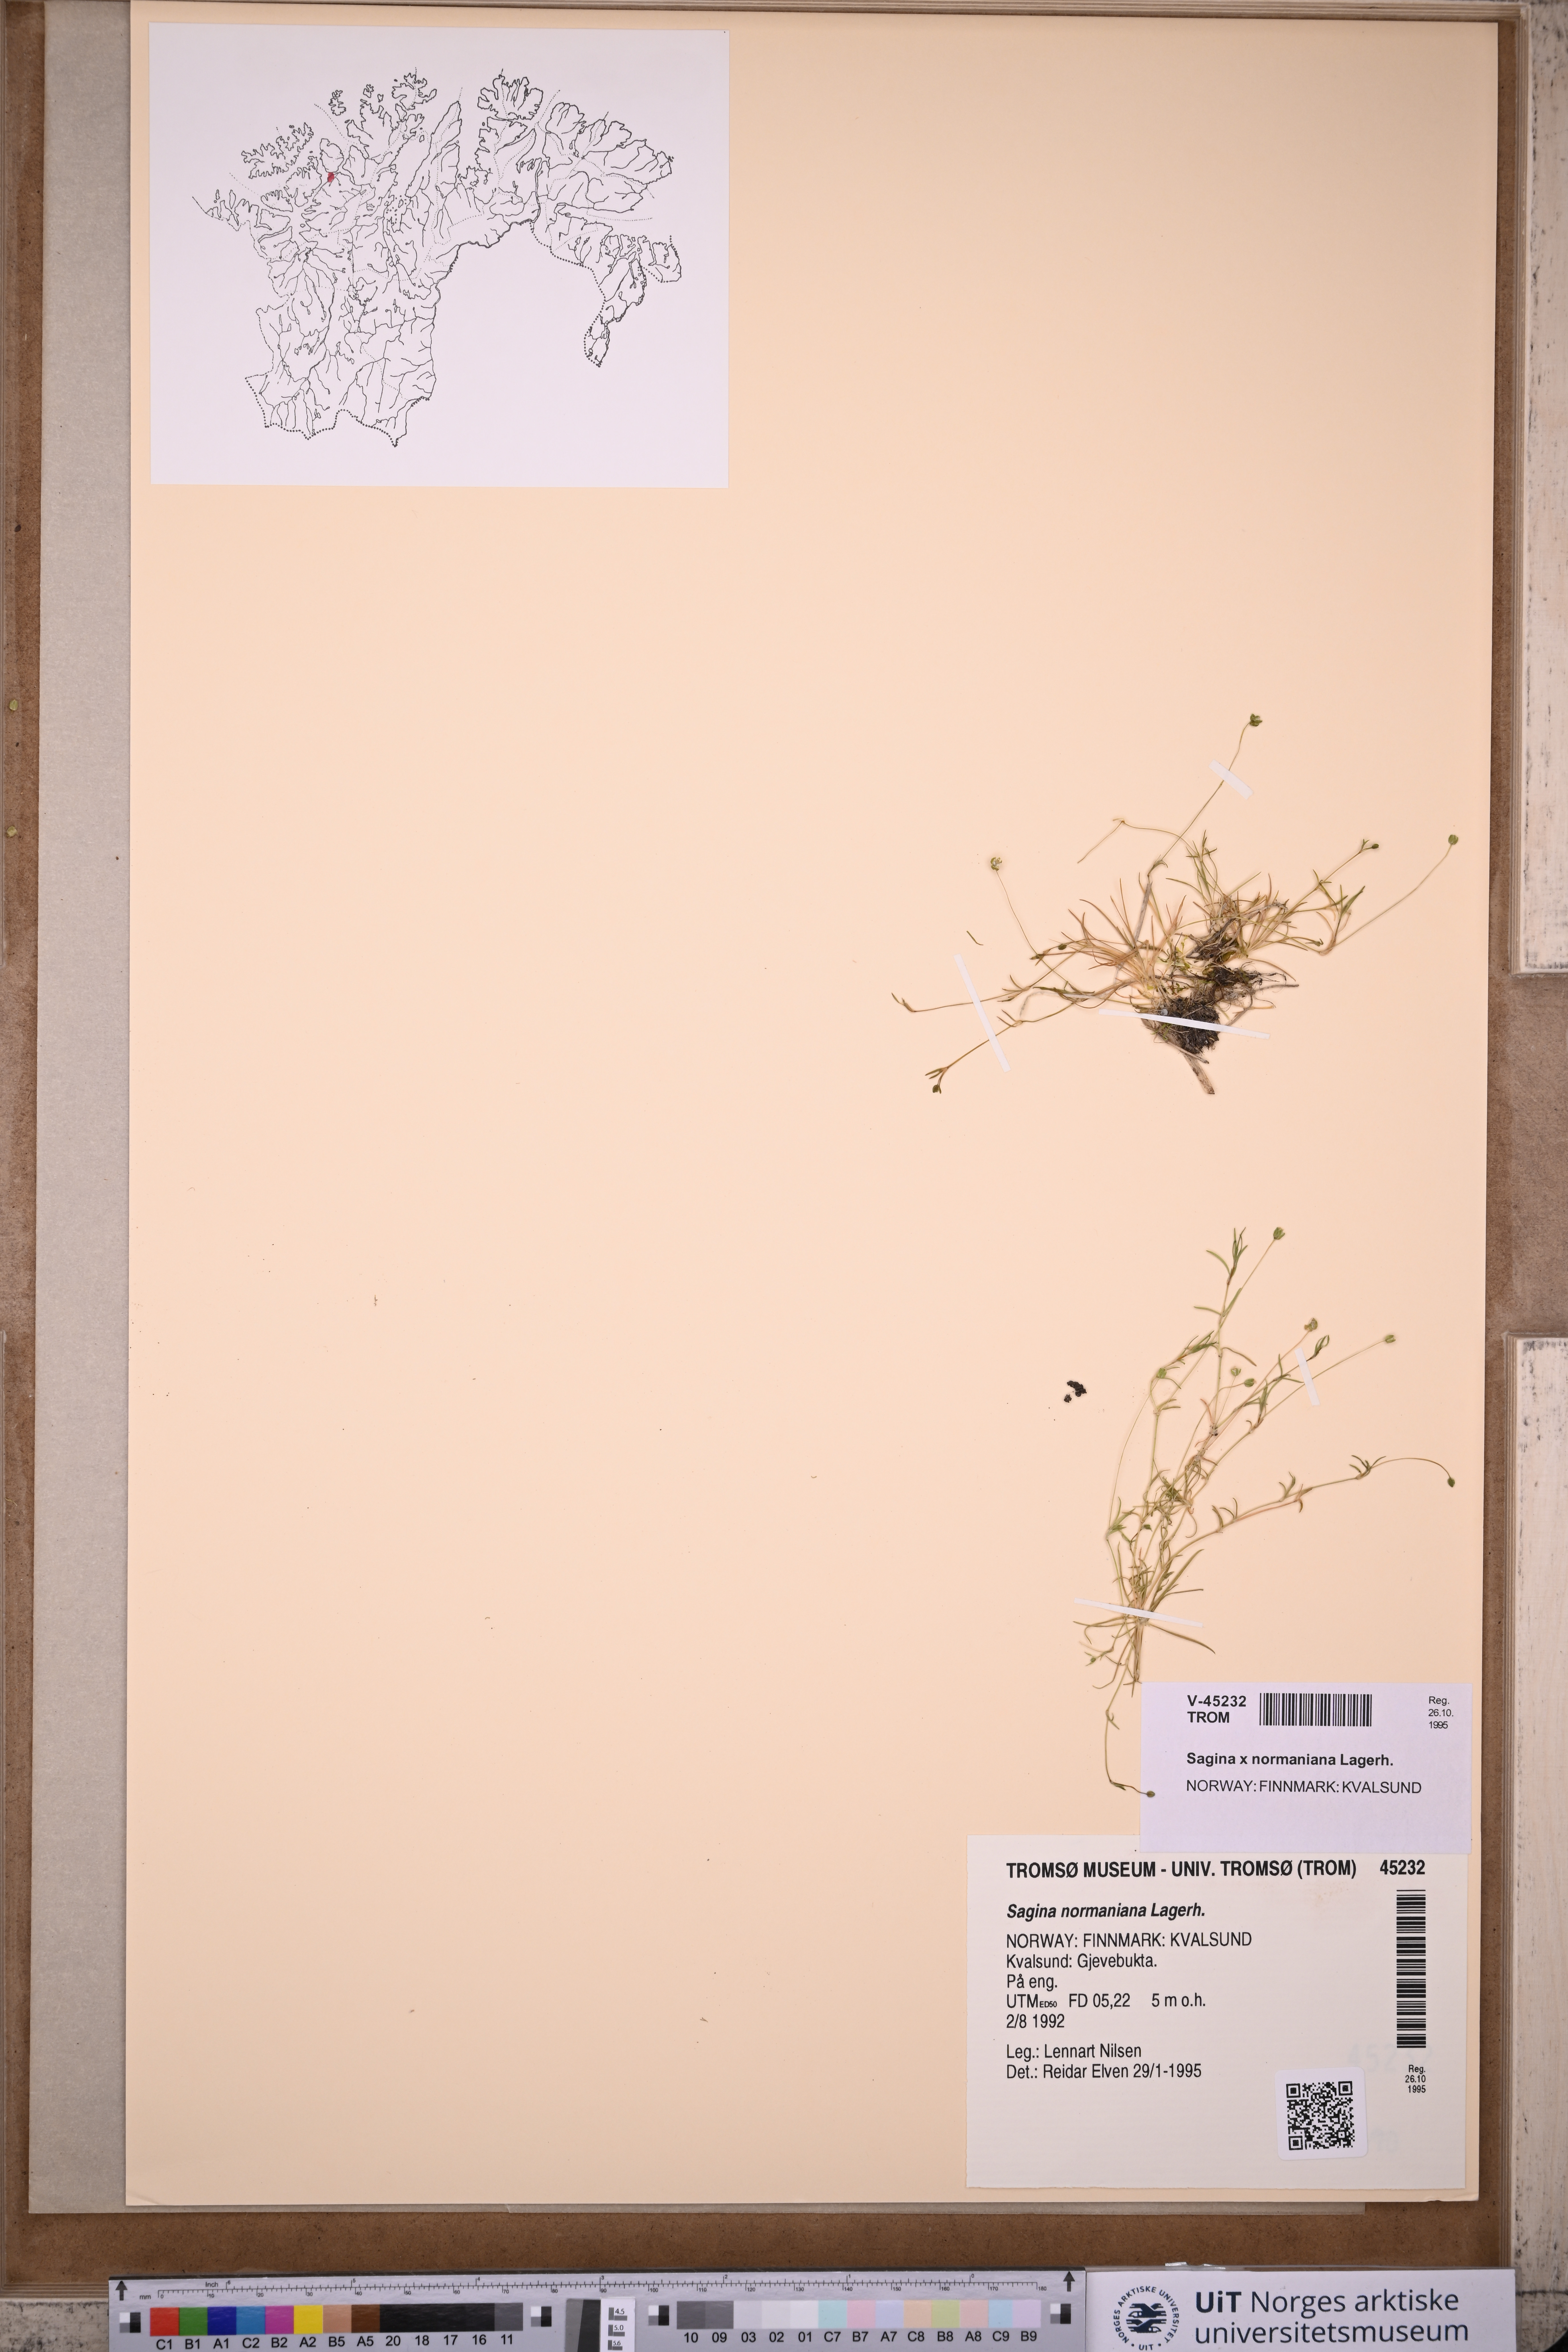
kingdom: Plantae
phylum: Tracheophyta
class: Magnoliopsida
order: Caryophyllales
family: Caryophyllaceae
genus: Sagina
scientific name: Sagina media
